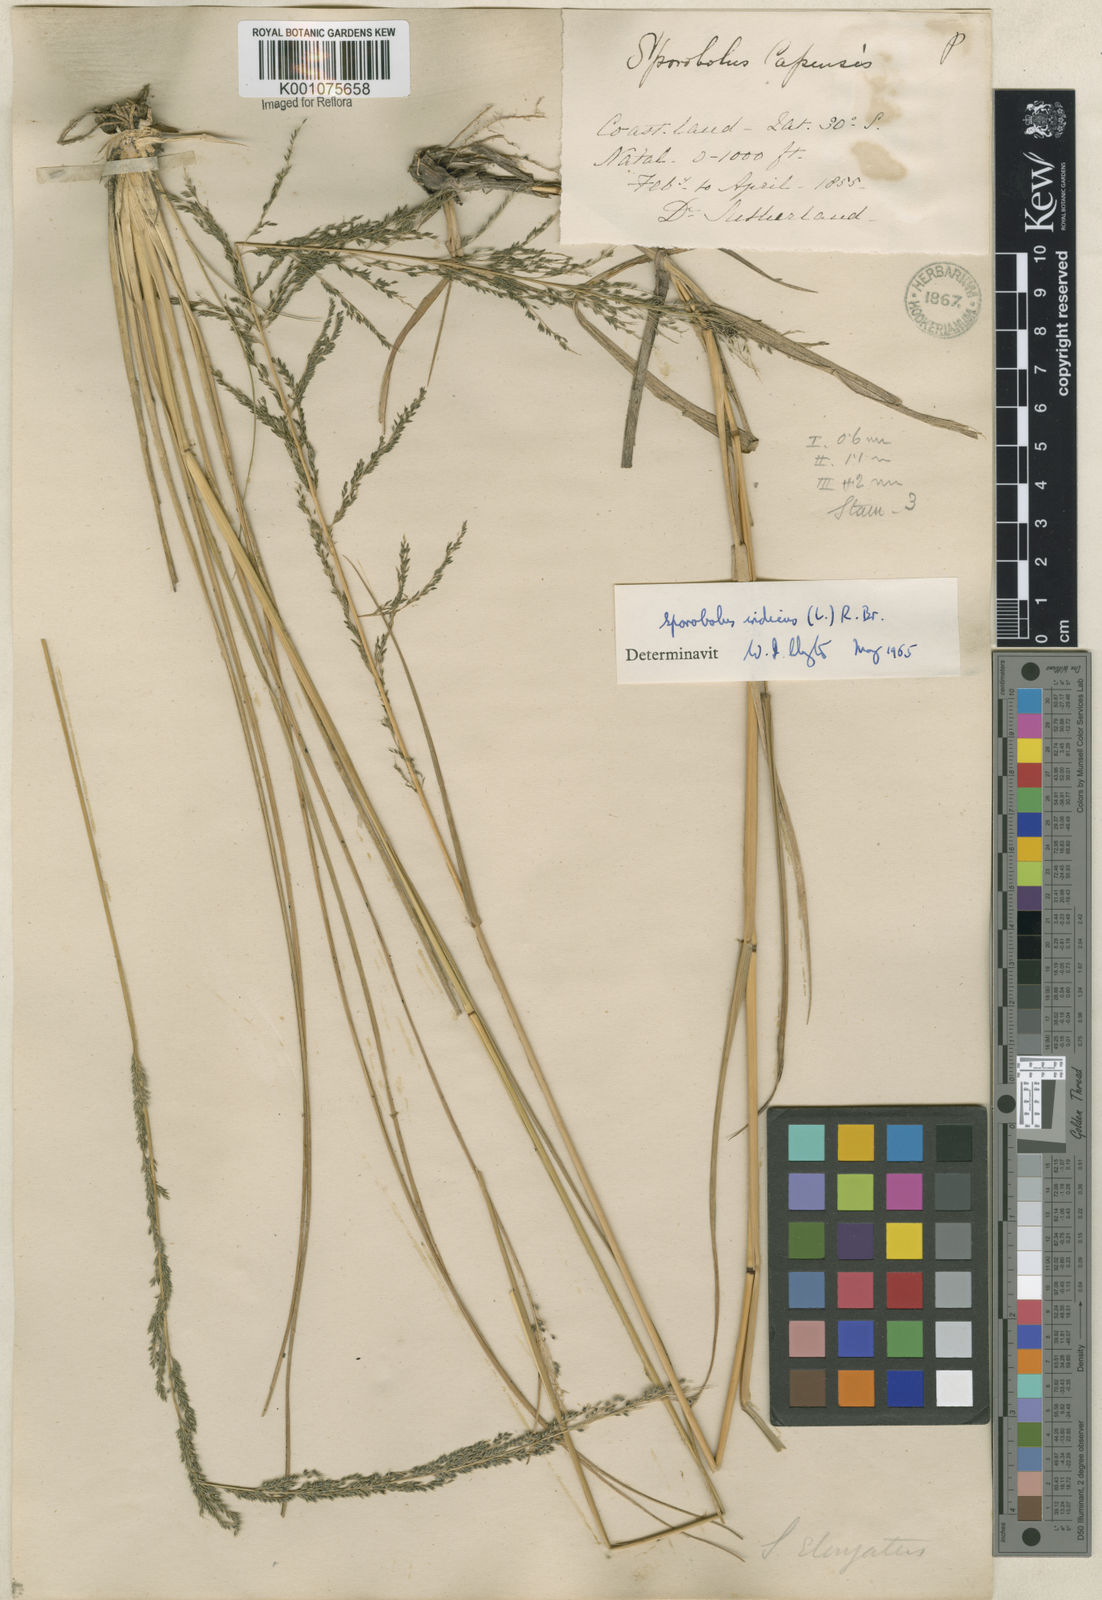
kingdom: Plantae
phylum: Tracheophyta
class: Liliopsida
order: Poales
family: Poaceae
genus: Sporobolus
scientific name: Sporobolus indicus
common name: Smut grass
